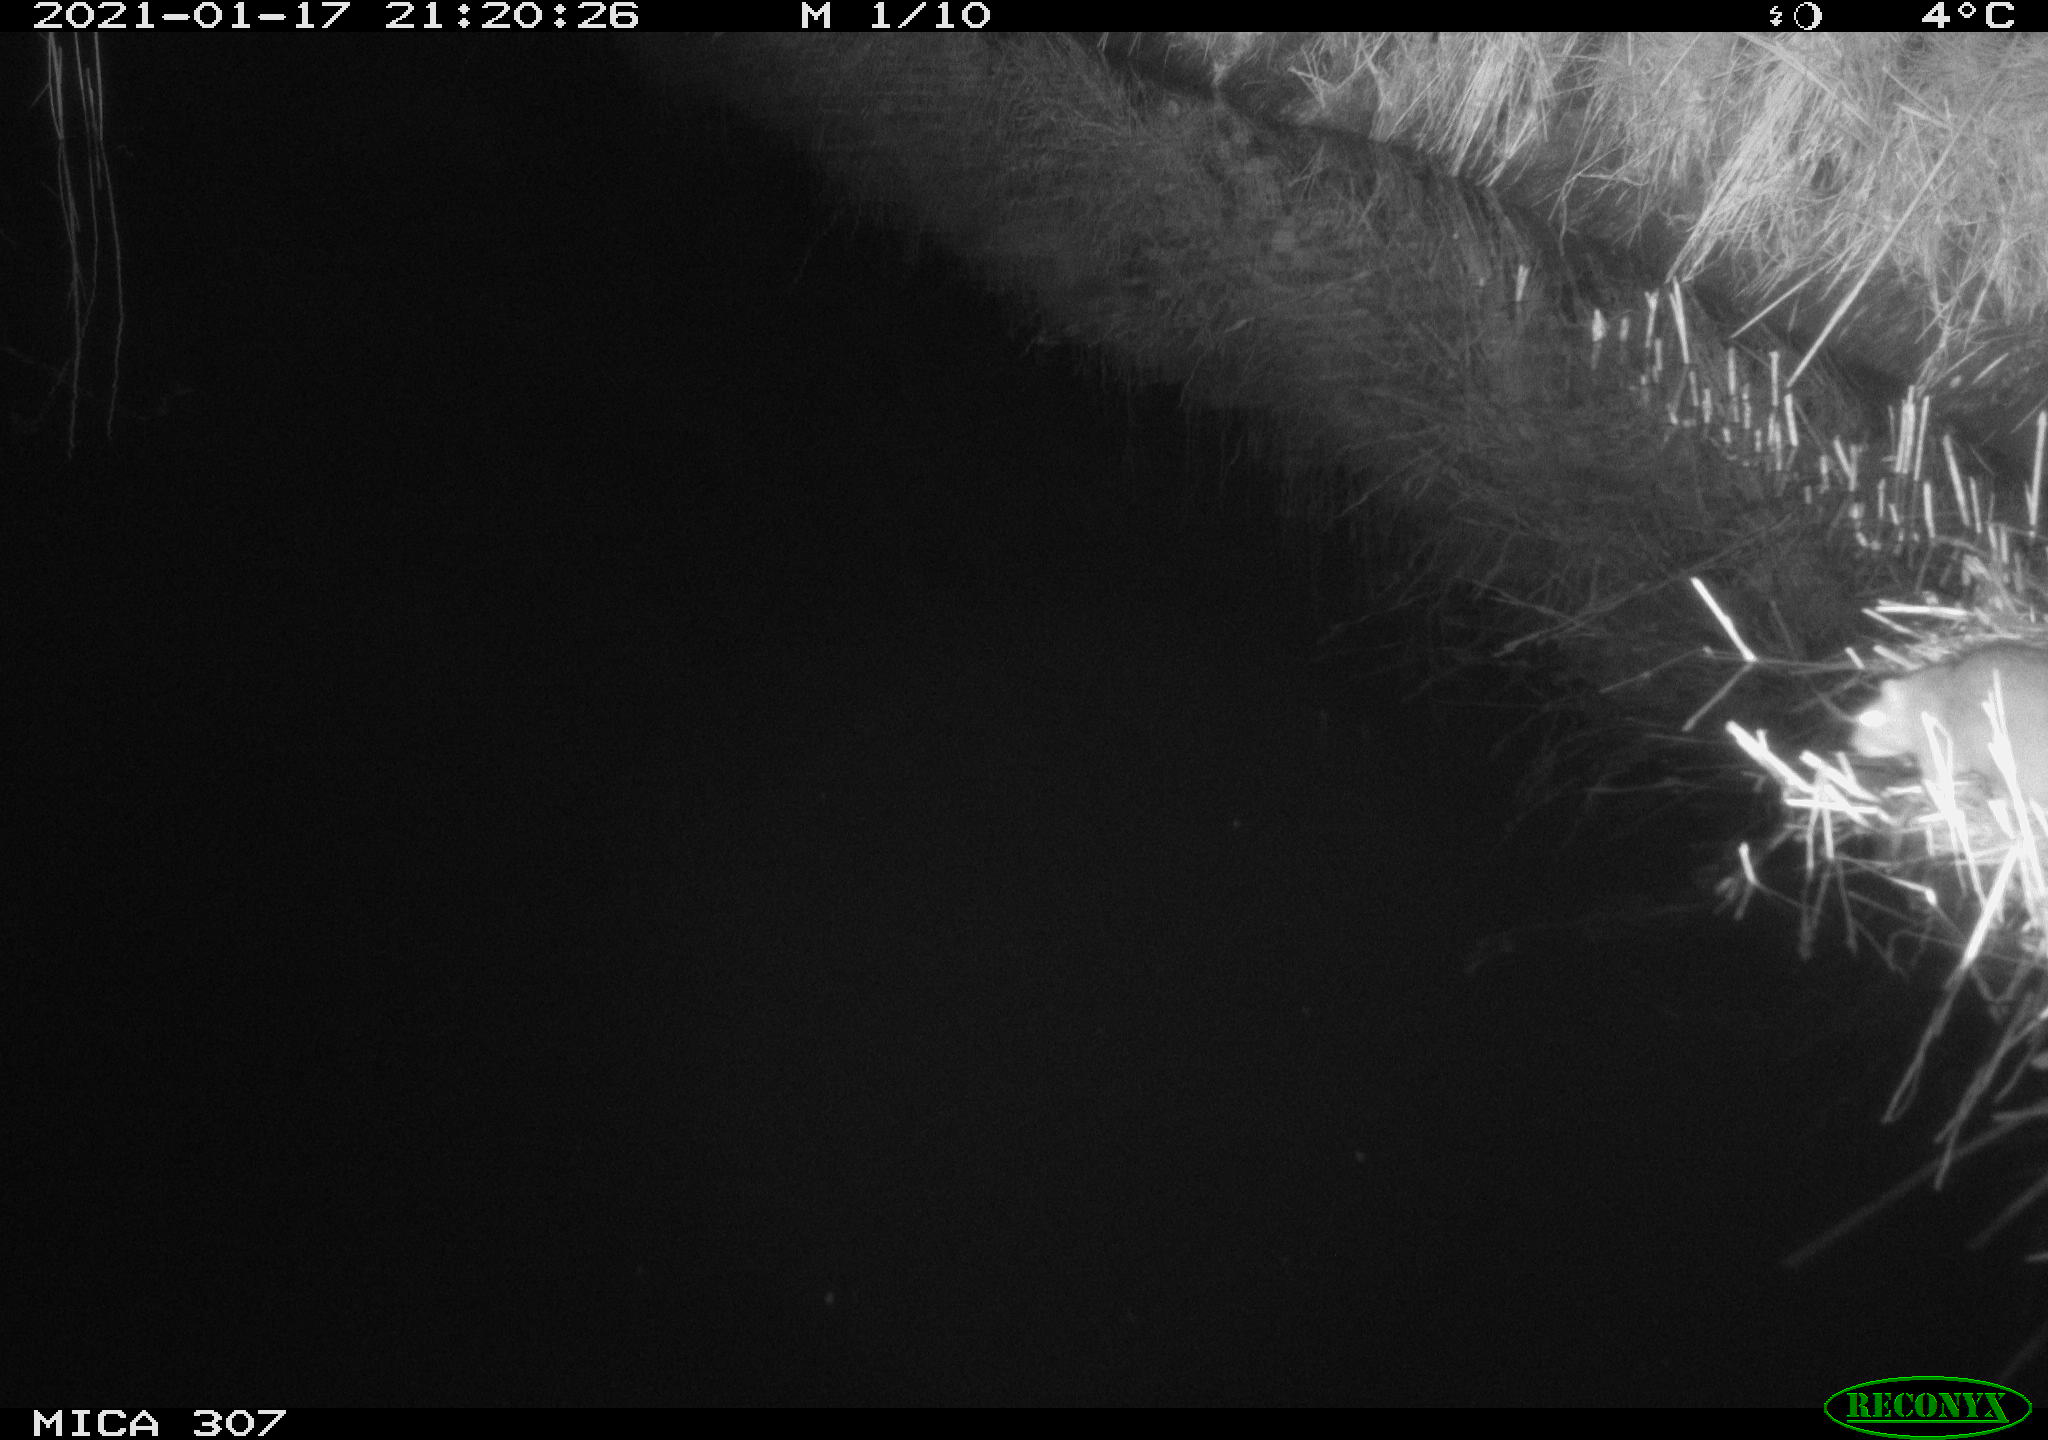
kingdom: Animalia
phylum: Chordata
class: Mammalia
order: Rodentia
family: Muridae
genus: Rattus
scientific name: Rattus norvegicus
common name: Brown rat
